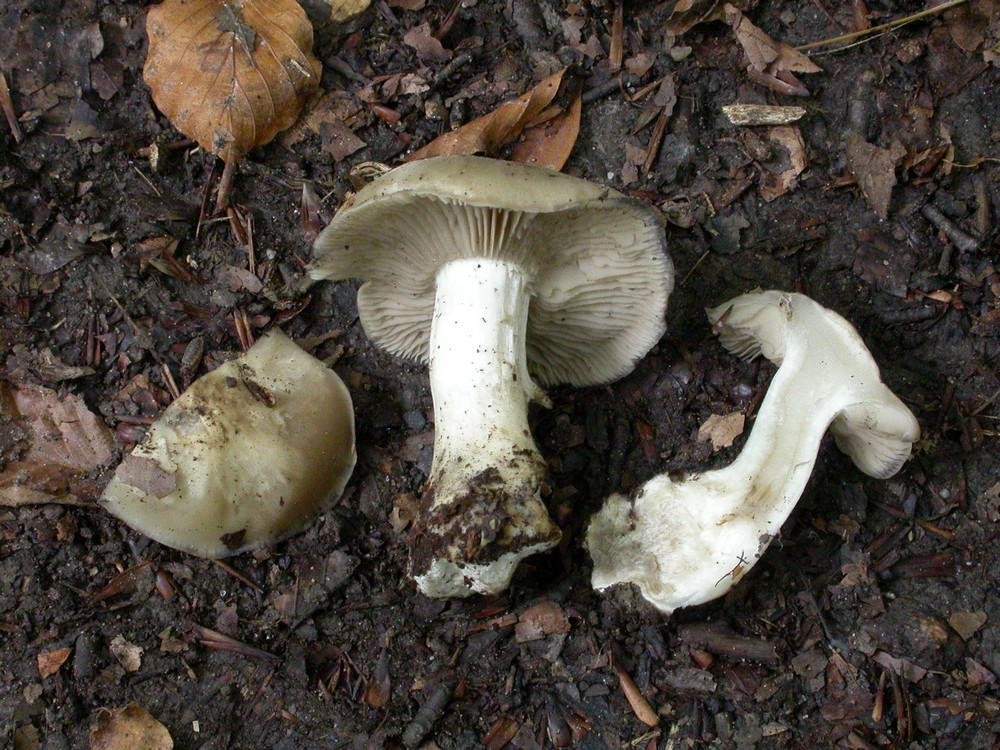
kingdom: Fungi
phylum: Basidiomycota
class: Agaricomycetes
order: Agaricales
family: Lyophyllaceae
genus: Lyophyllum
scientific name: Lyophyllum eustygium
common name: tykbladet gråblad
